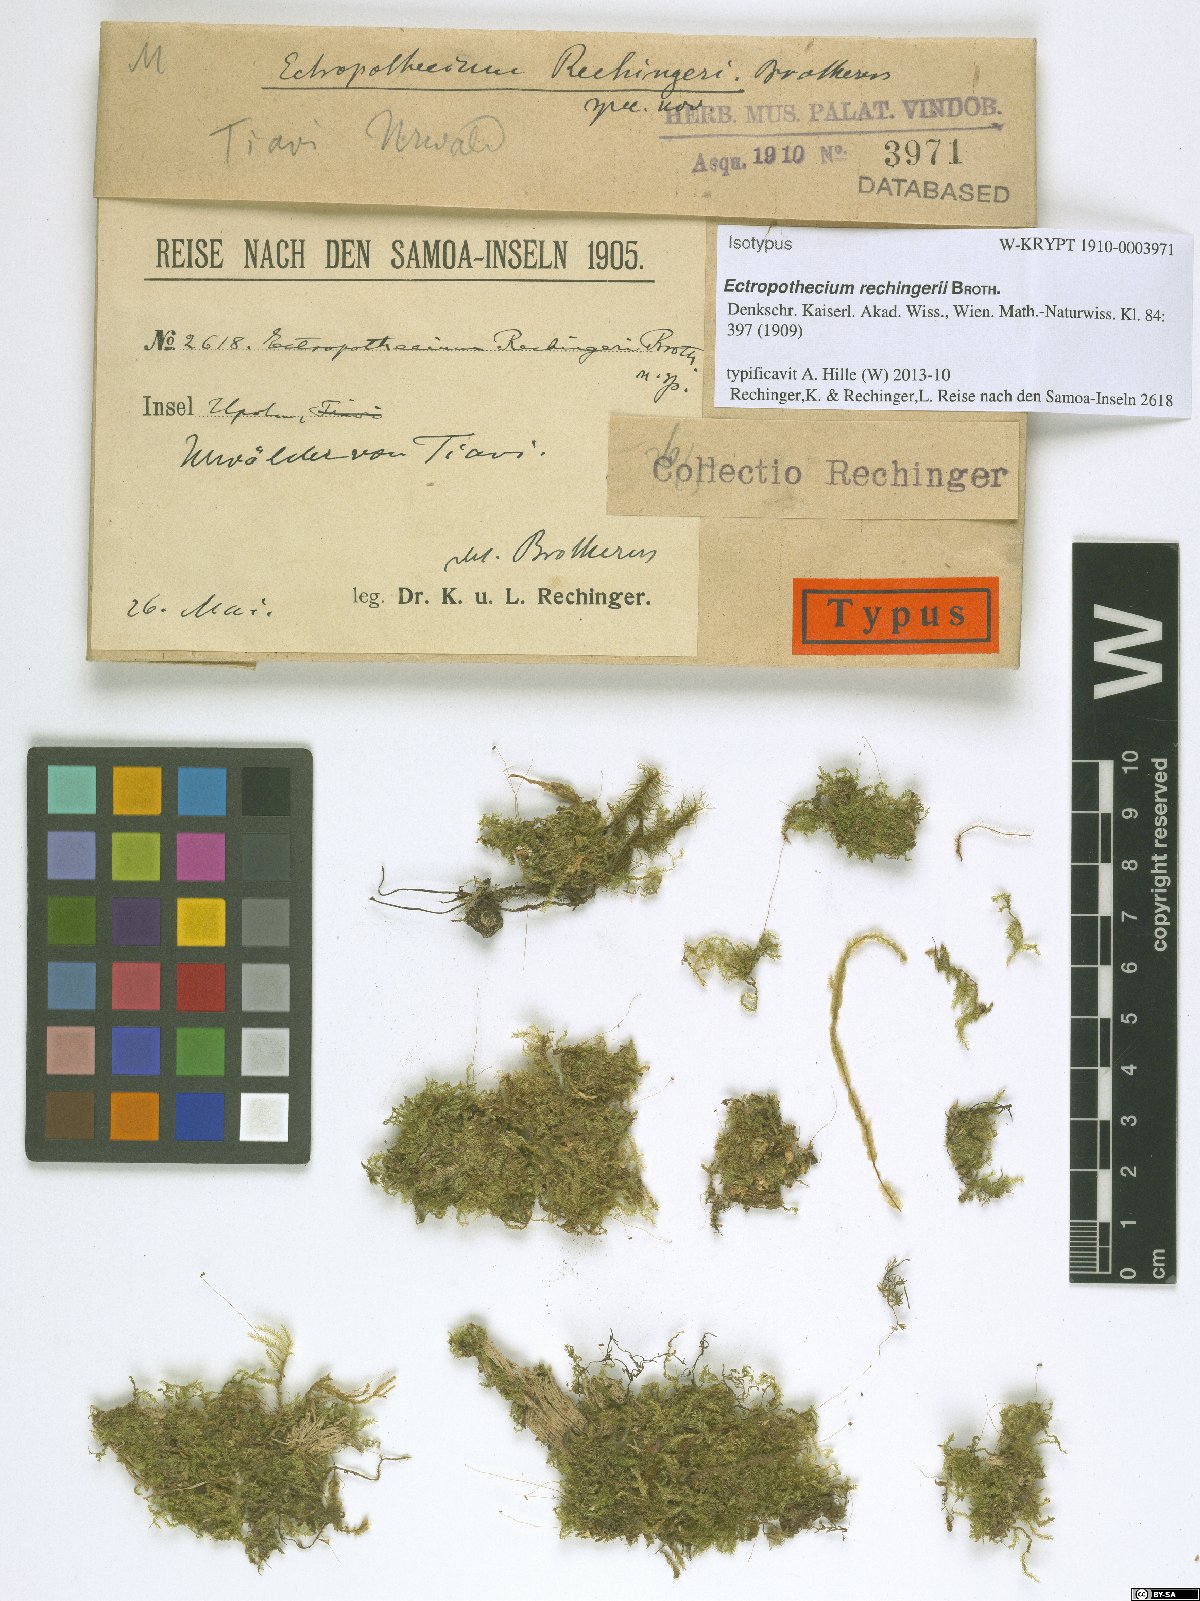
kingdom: Plantae
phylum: Bryophyta
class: Bryopsida
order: Hypnales
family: Hypnaceae
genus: Ectropothecium
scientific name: Ectropothecium rechingeri
